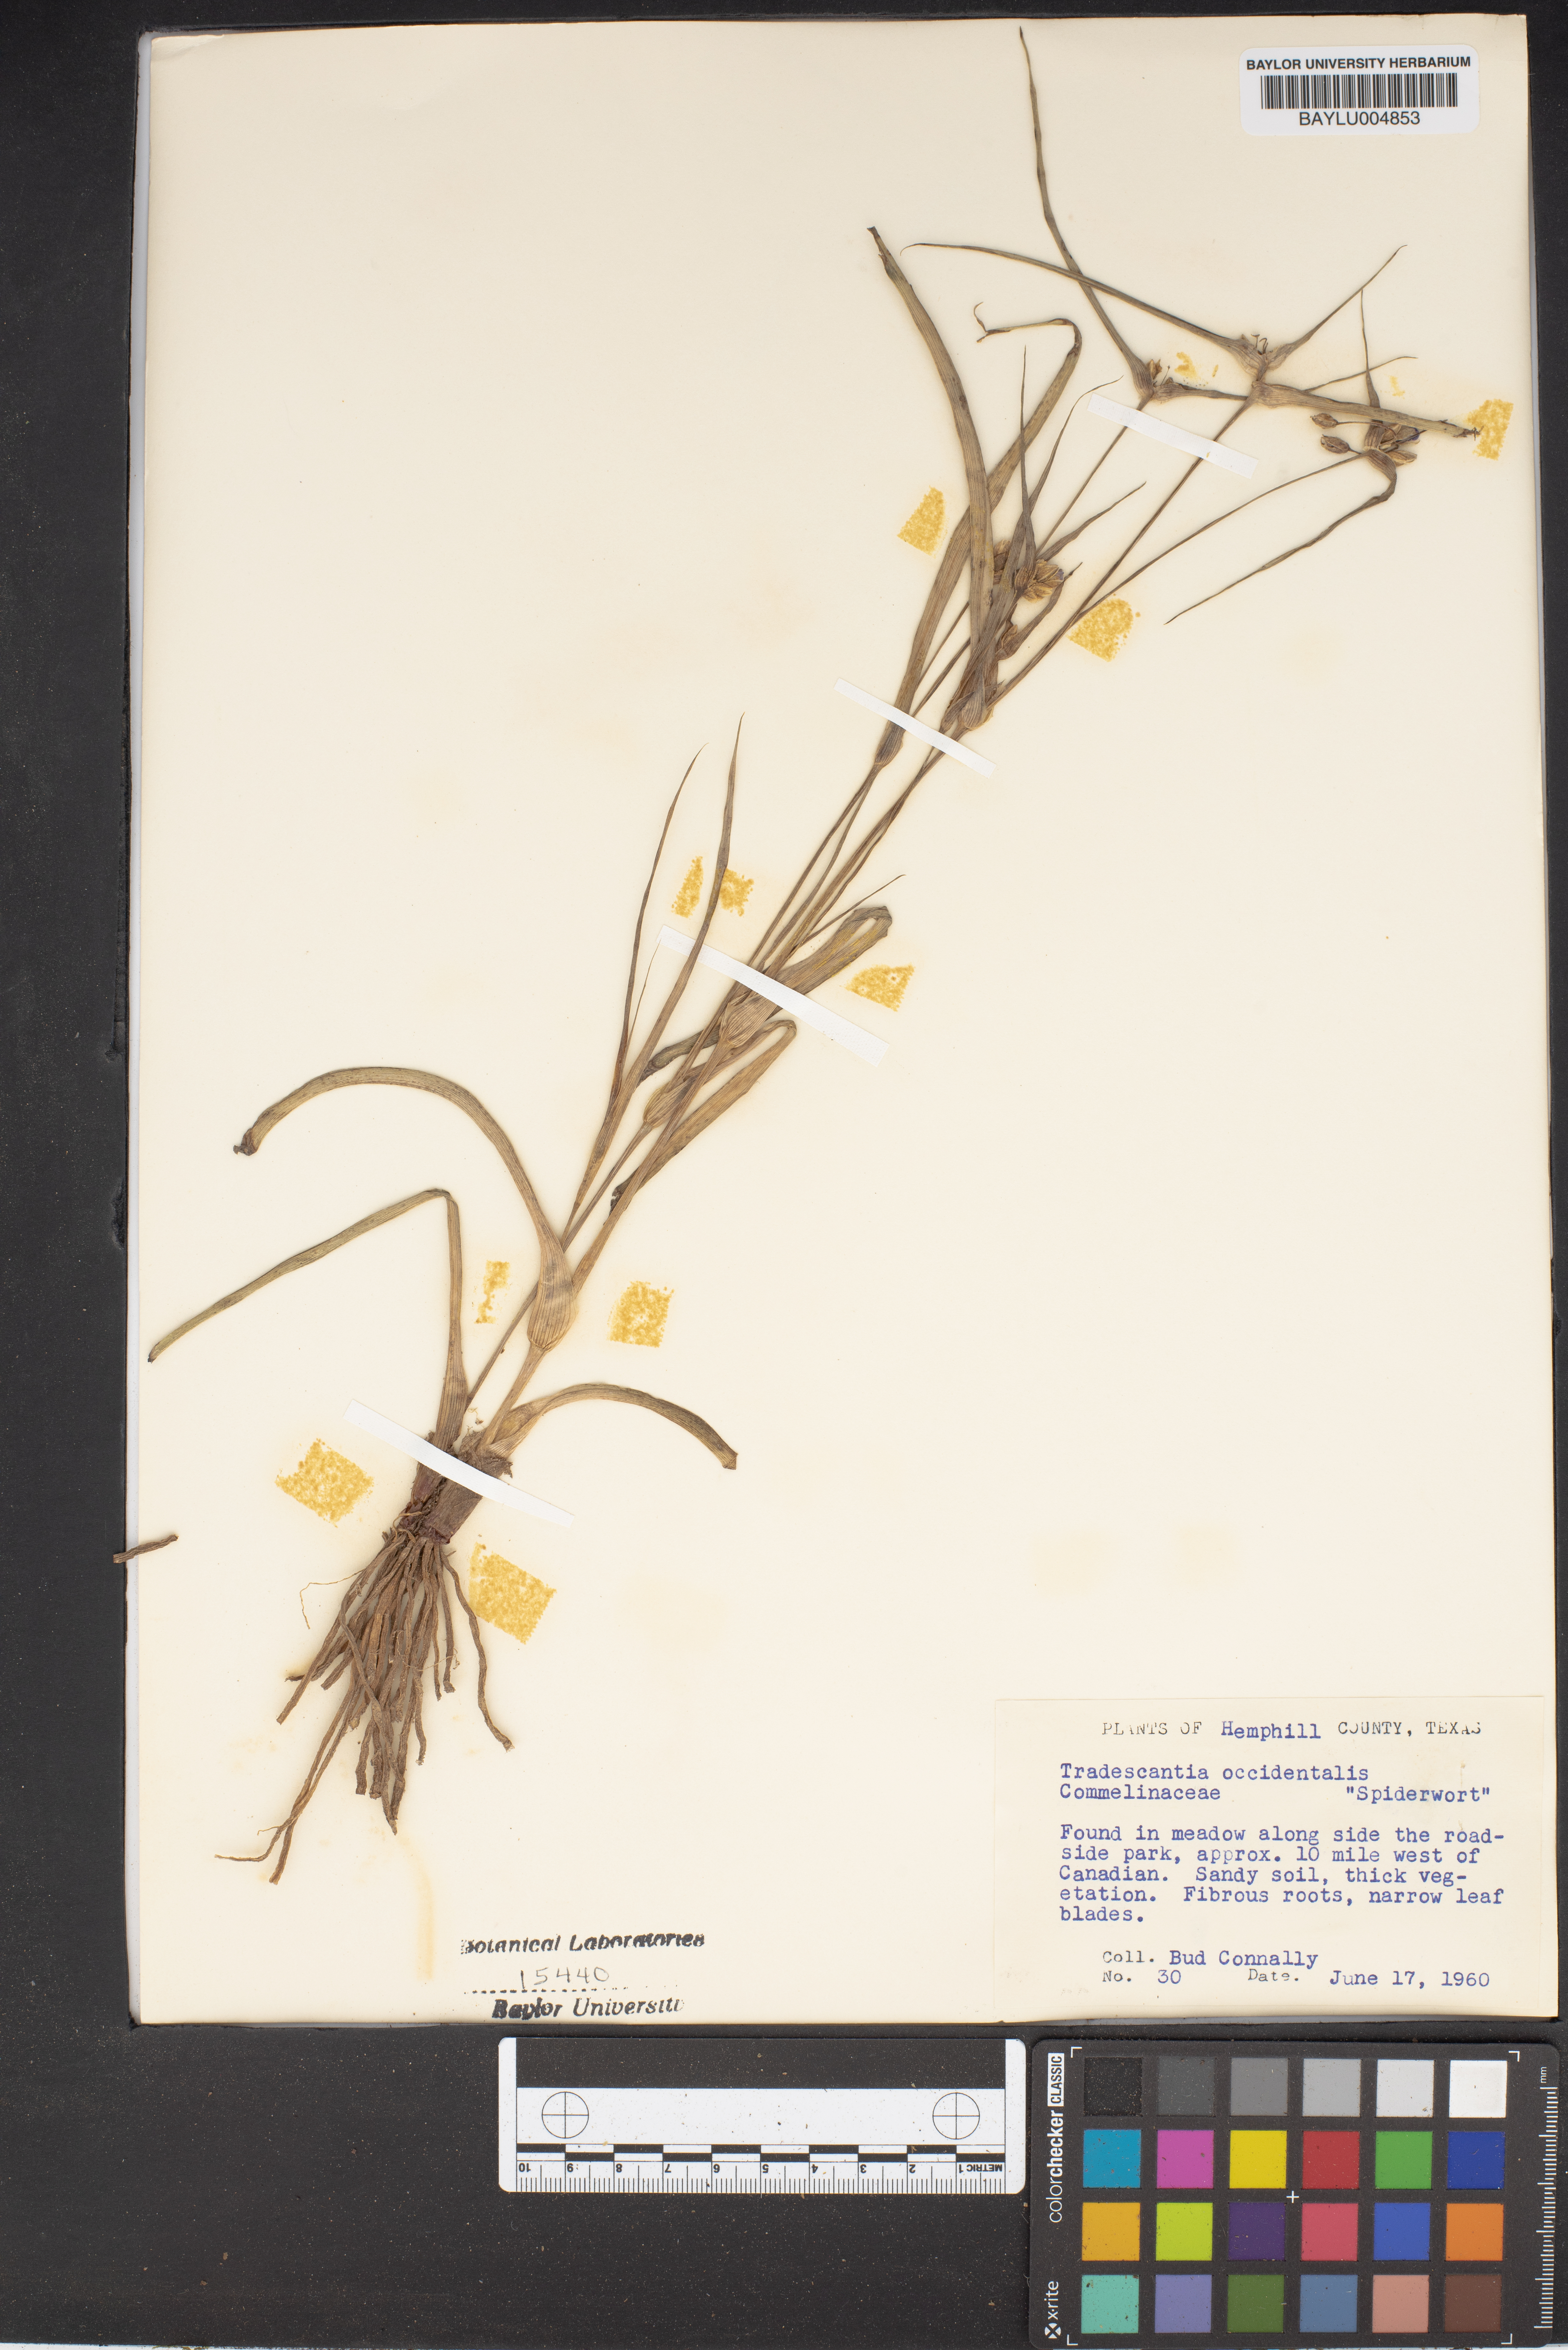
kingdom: Plantae
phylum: Tracheophyta
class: Liliopsida
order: Commelinales
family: Commelinaceae
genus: Tradescantia
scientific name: Tradescantia occidentalis
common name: Prairie spiderwort
